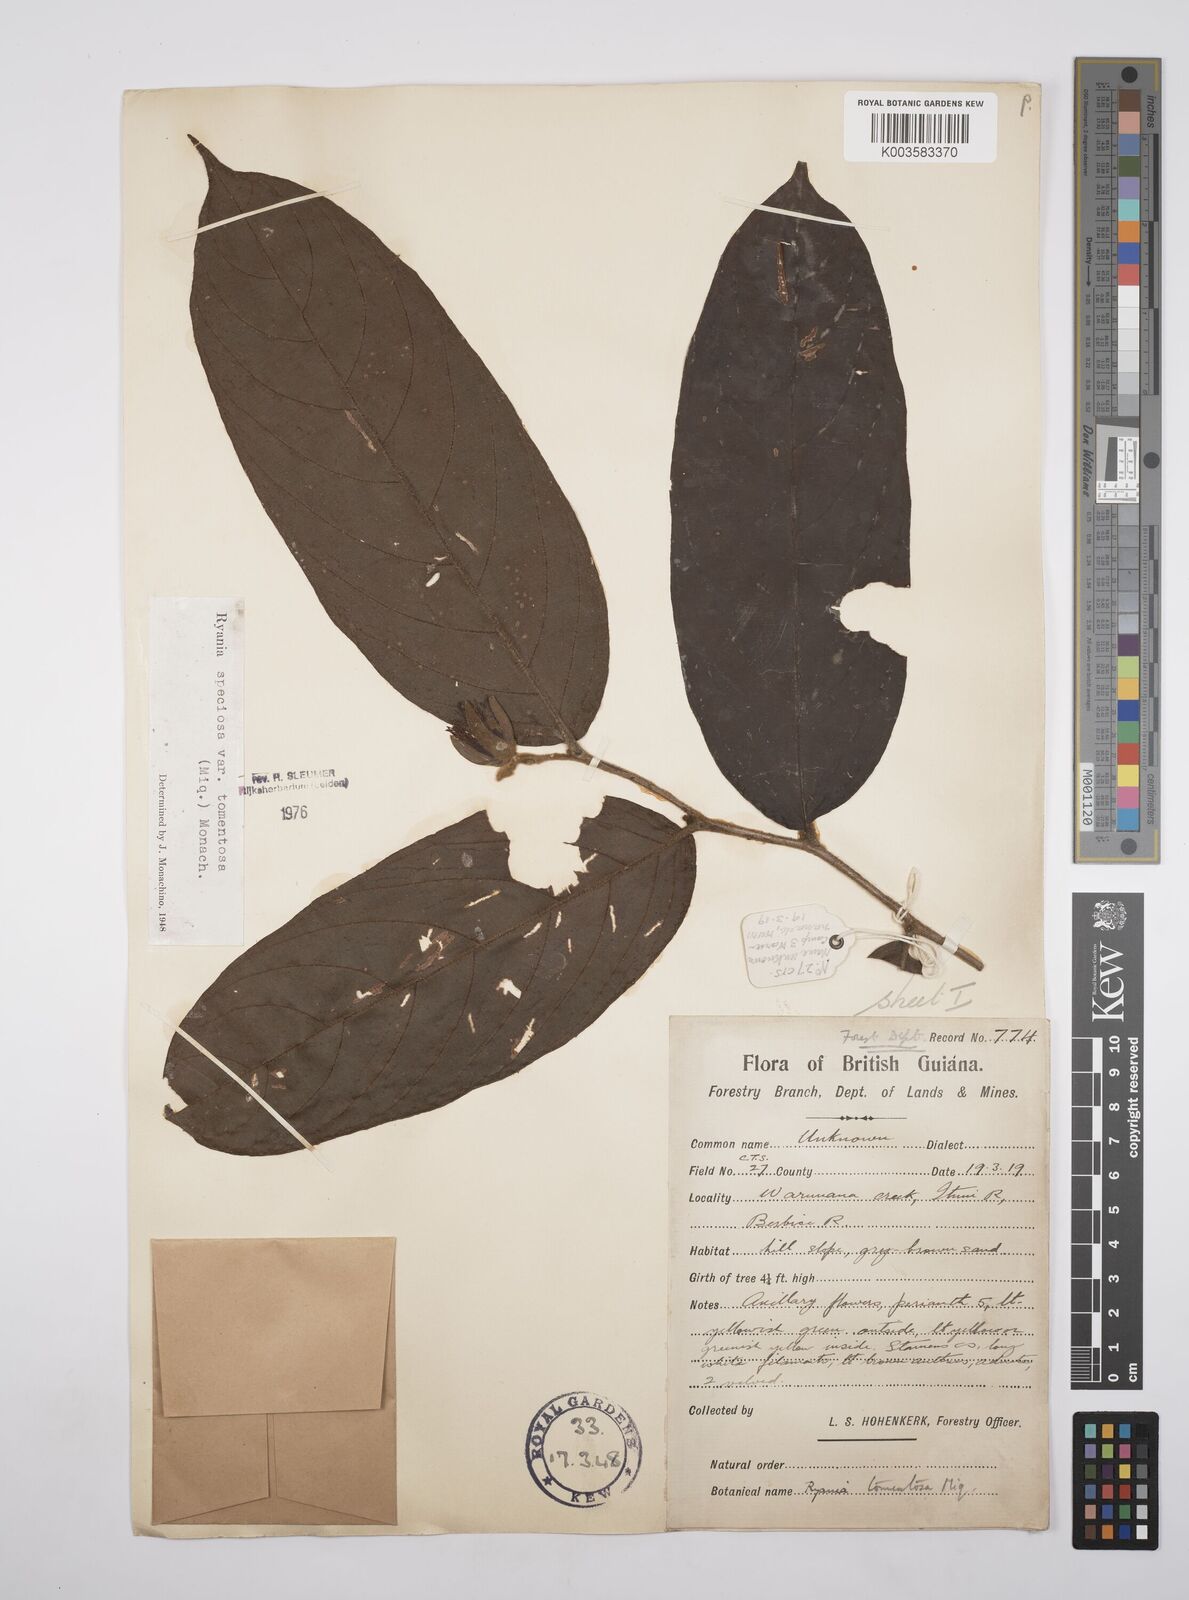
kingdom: Plantae
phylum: Tracheophyta
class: Magnoliopsida
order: Malpighiales
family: Salicaceae
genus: Ryania
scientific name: Ryania speciosa
